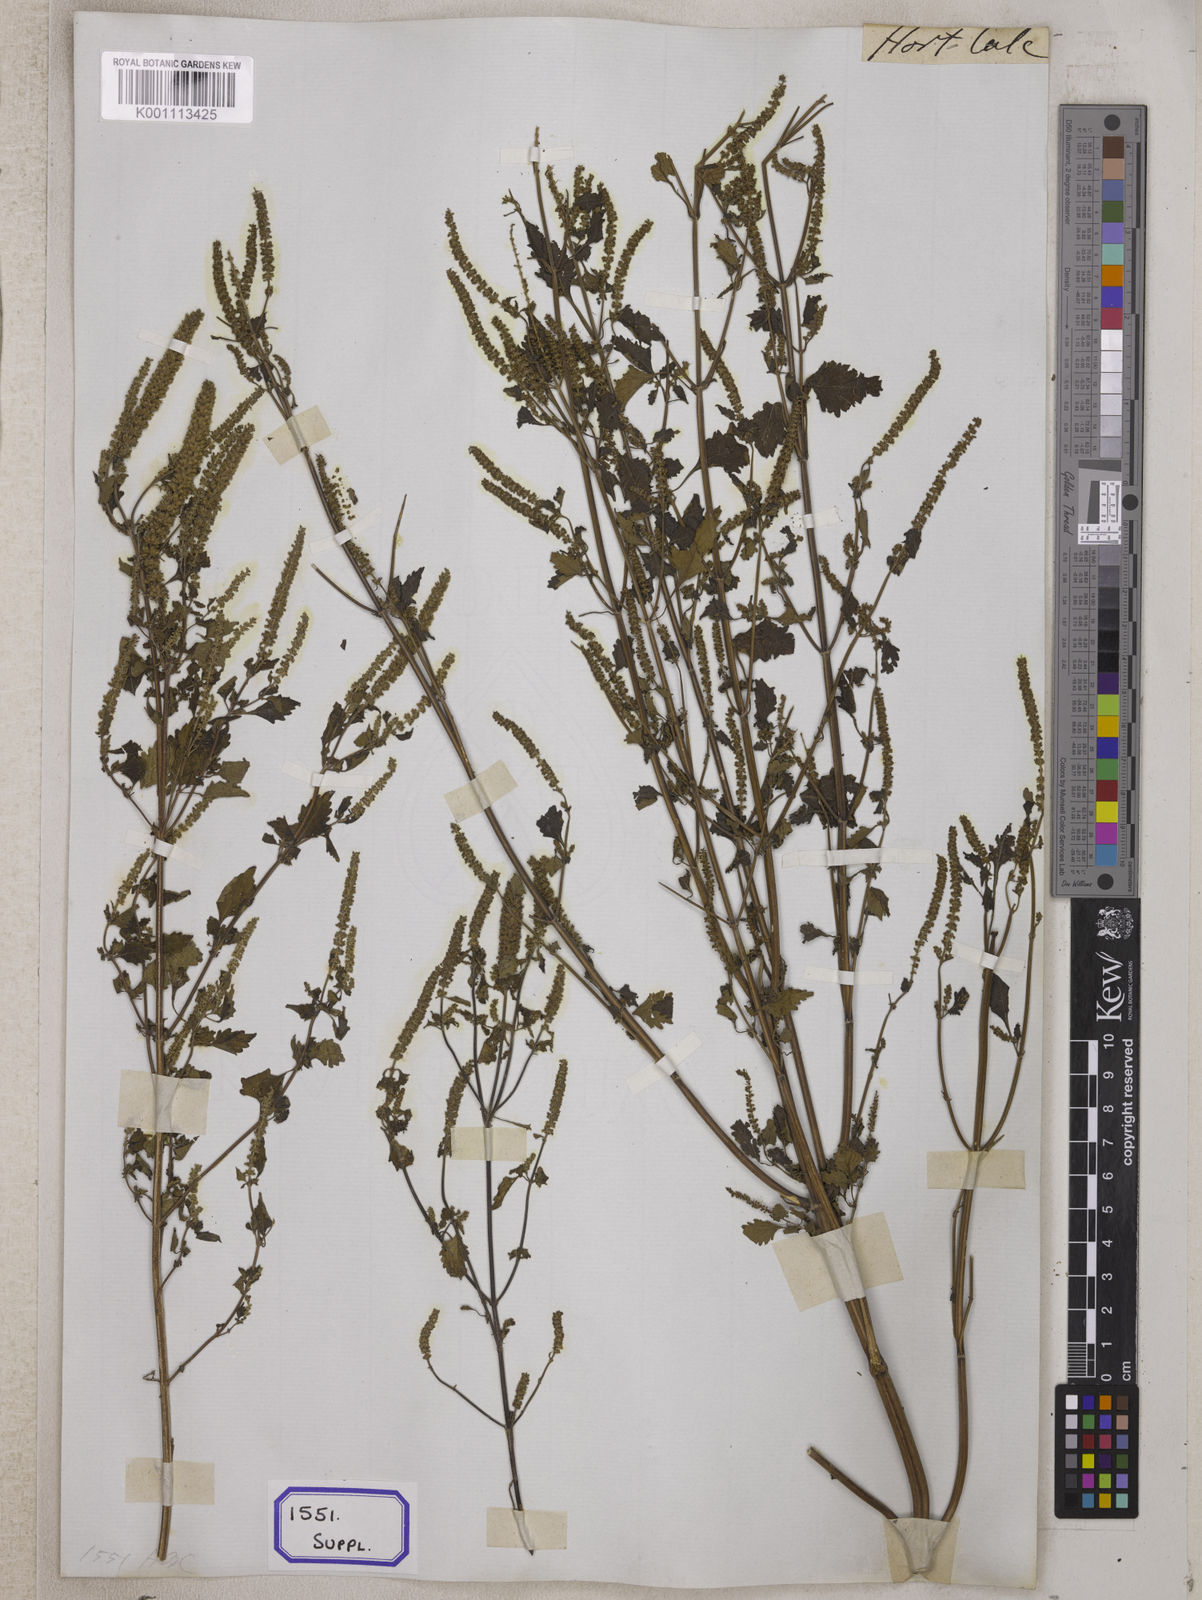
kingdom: Plantae
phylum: Tracheophyta
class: Magnoliopsida
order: Lamiales
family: Lamiaceae
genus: Elsholtzia
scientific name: Elsholtzia stachyodes
